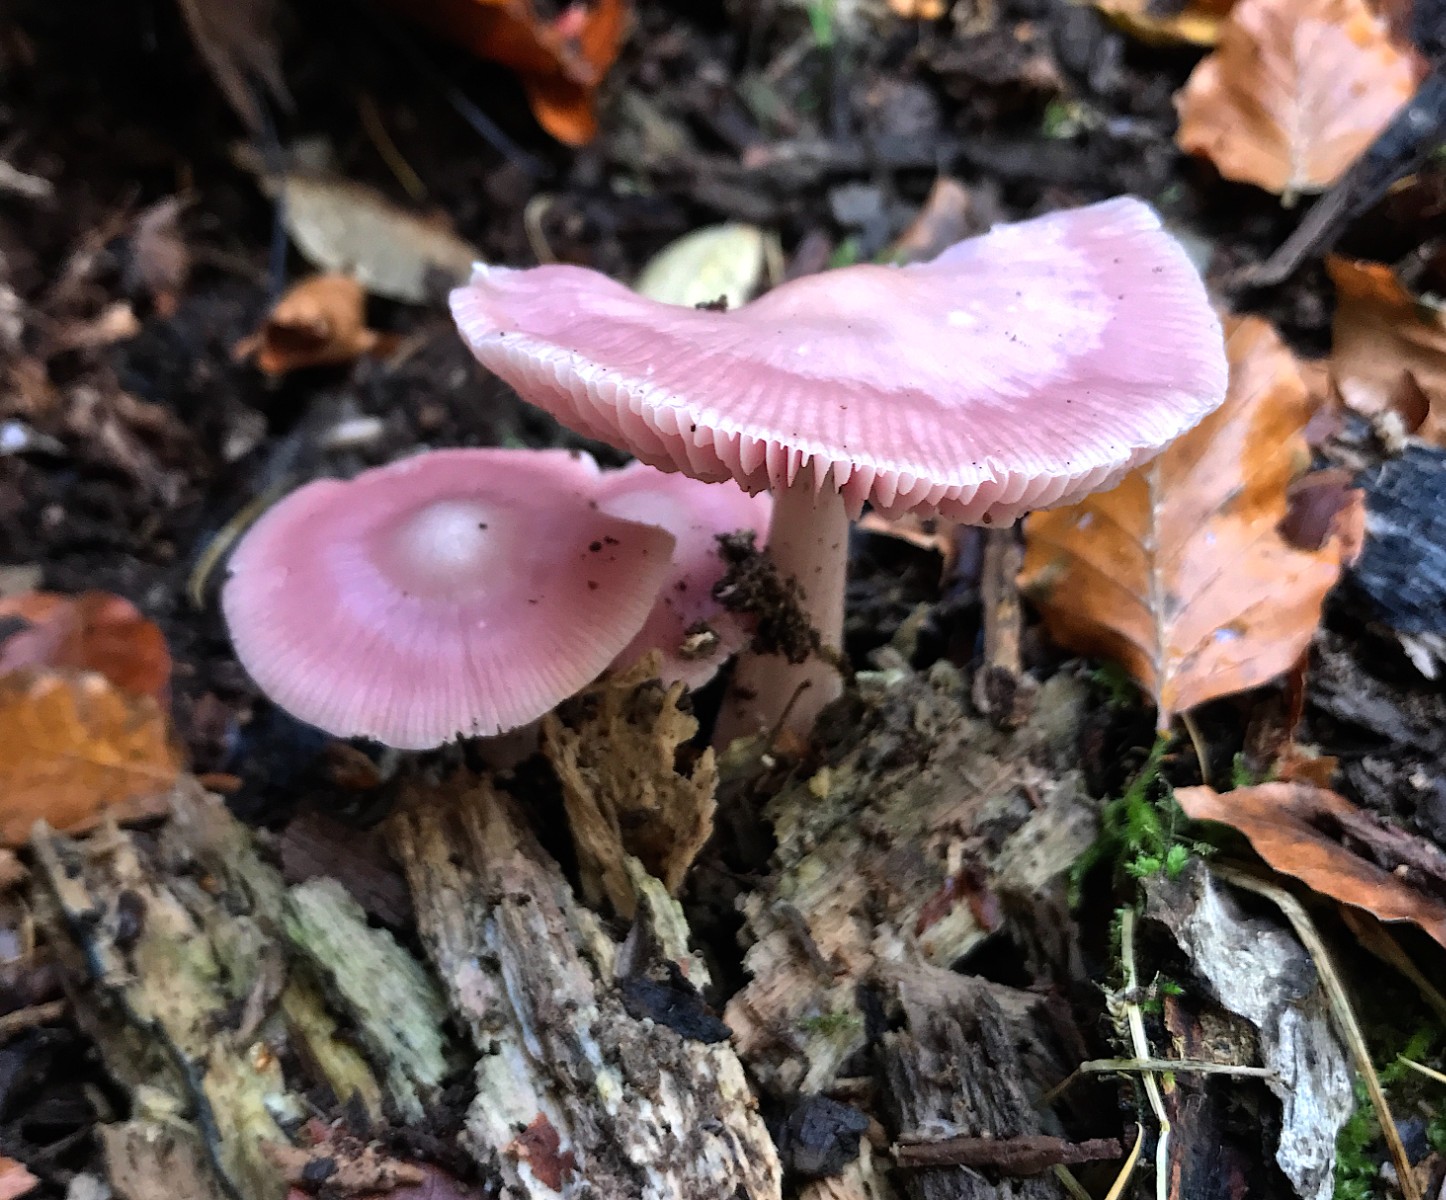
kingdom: Fungi
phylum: Basidiomycota
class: Agaricomycetes
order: Agaricales
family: Mycenaceae
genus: Mycena
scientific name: Mycena rosea
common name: rosa huesvamp
